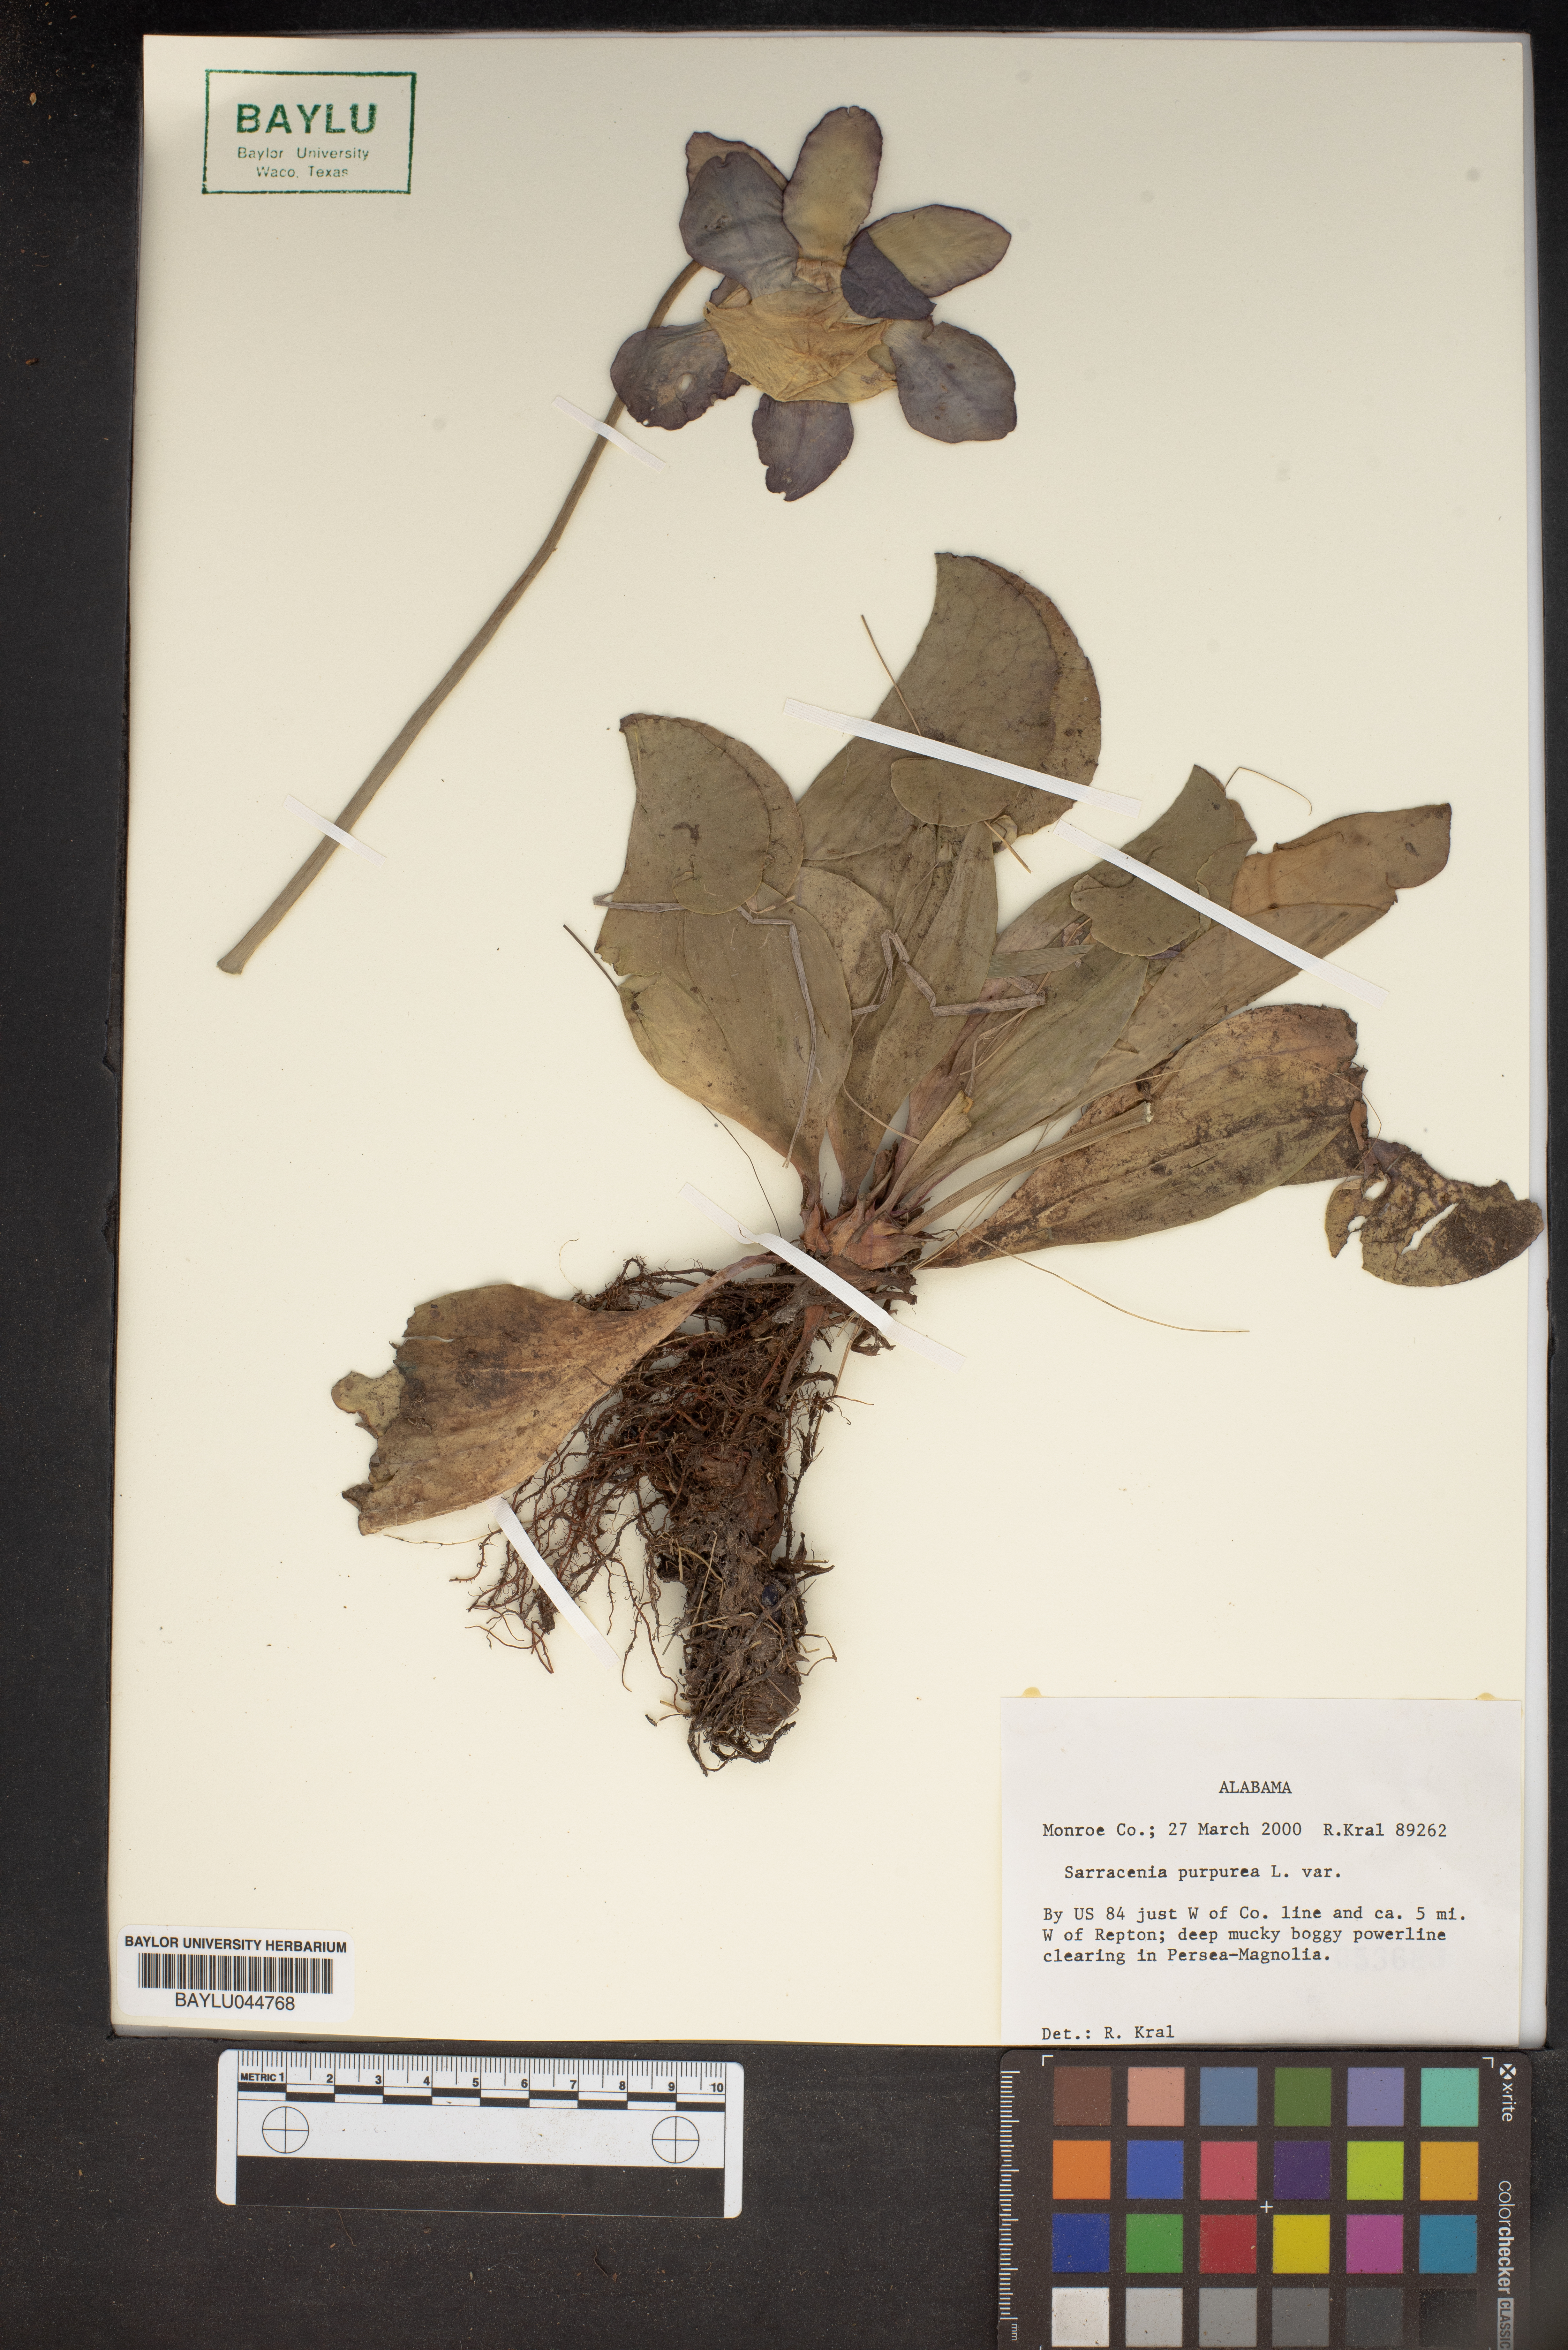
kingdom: Plantae
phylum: Tracheophyta
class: Magnoliopsida
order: Ericales
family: Sarraceniaceae
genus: Sarracenia
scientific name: Sarracenia purpurea
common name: Pitcherplant
